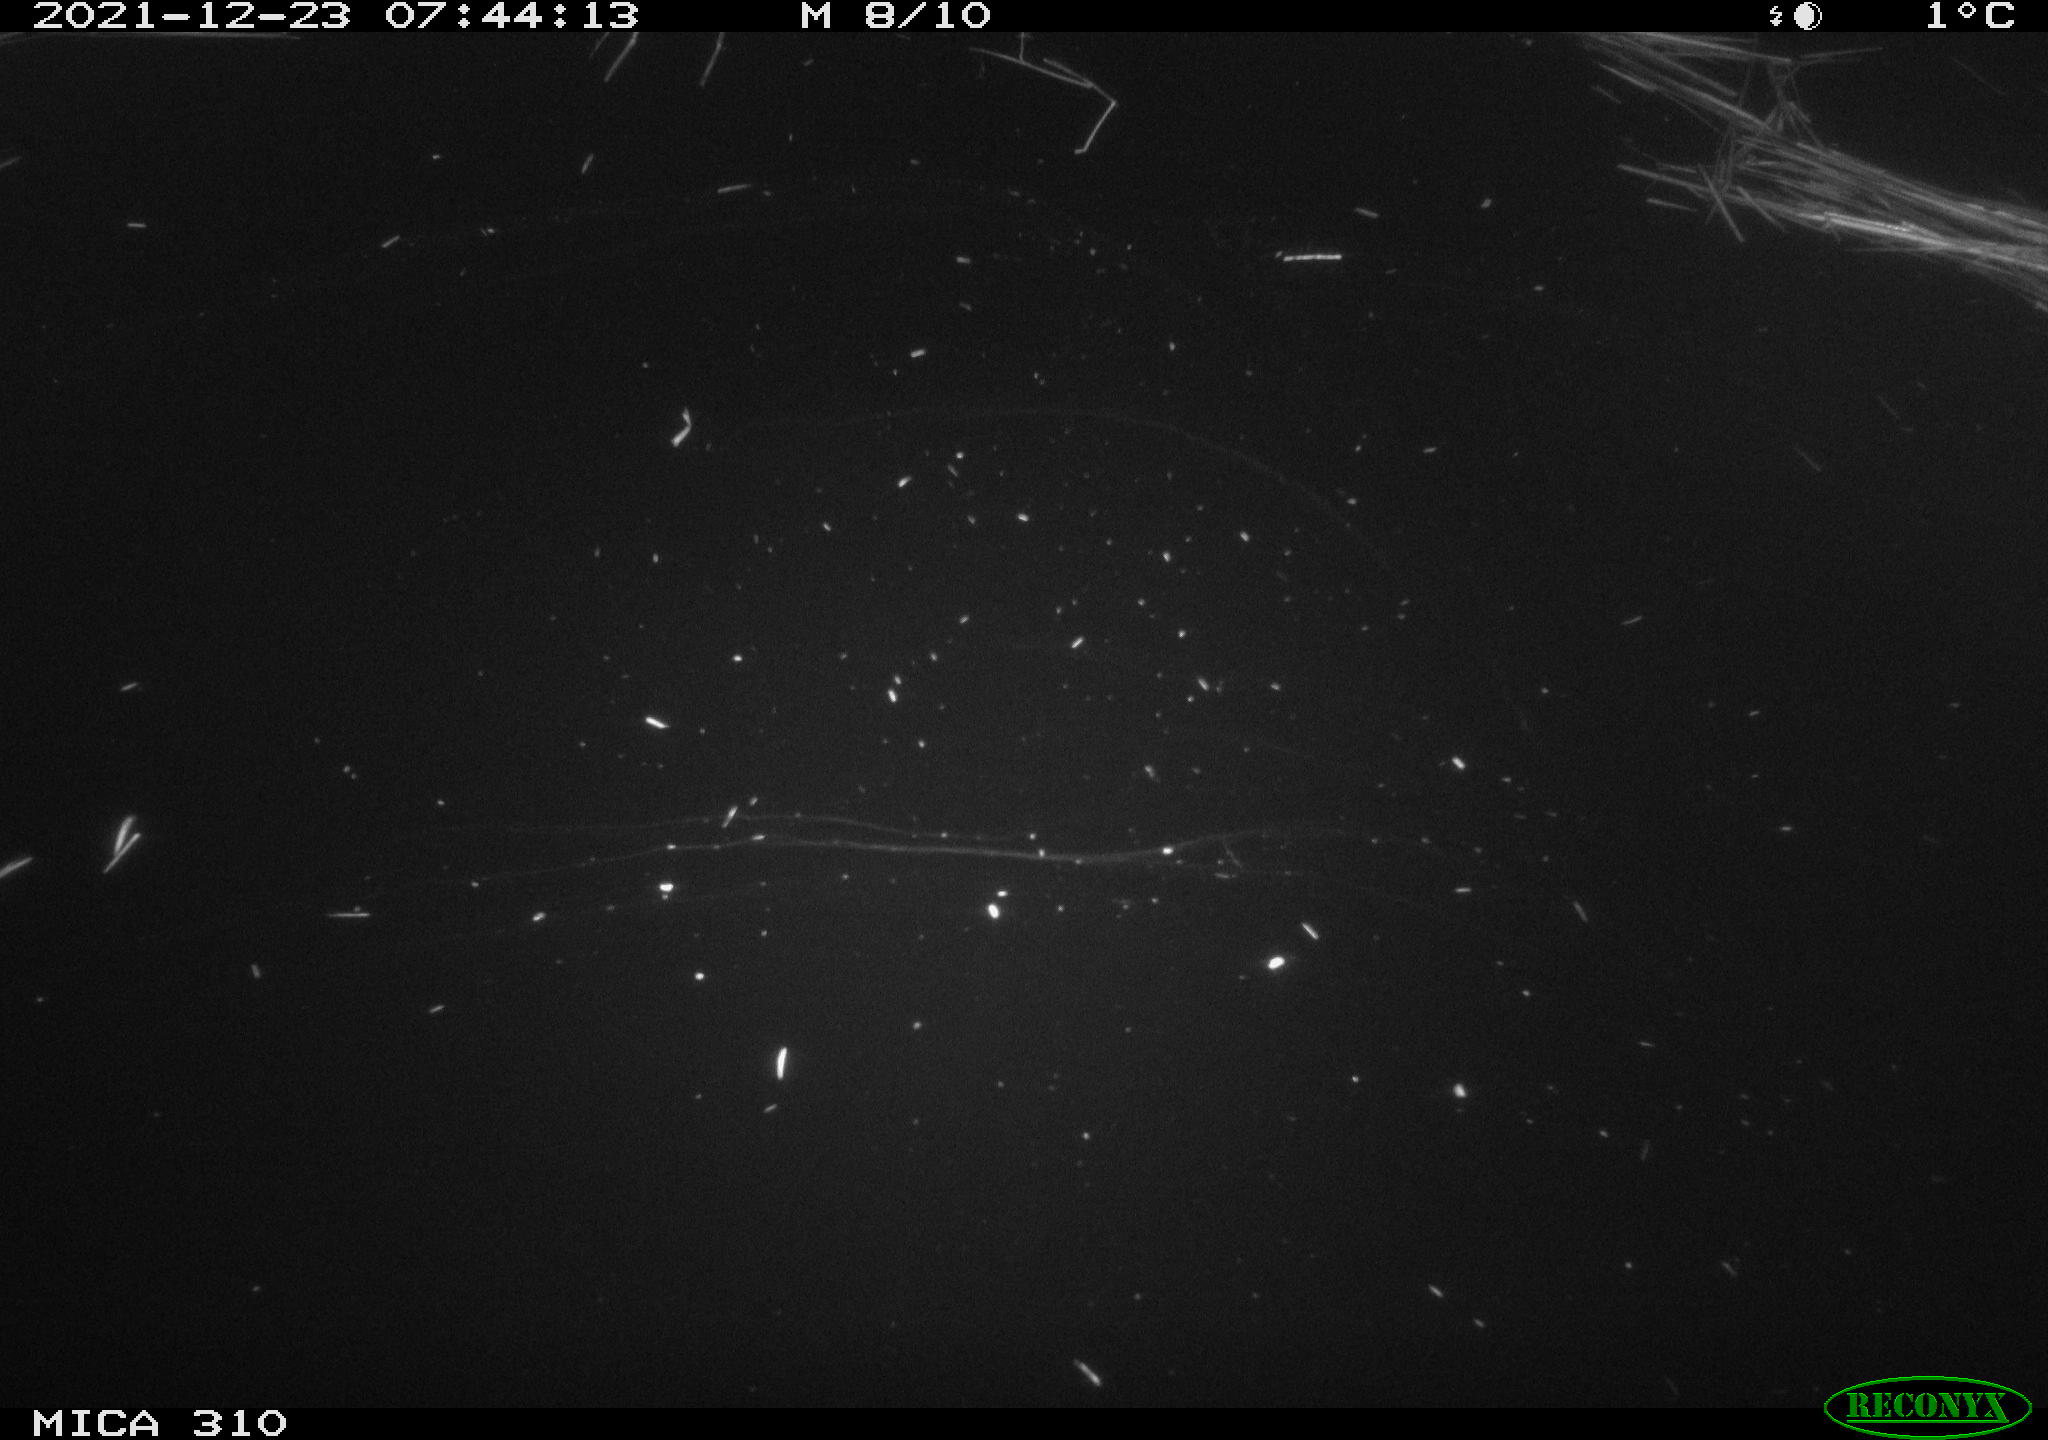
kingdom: Animalia
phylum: Chordata
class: Aves
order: Anseriformes
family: Anatidae
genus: Anas
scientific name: Anas platyrhynchos
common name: Mallard
